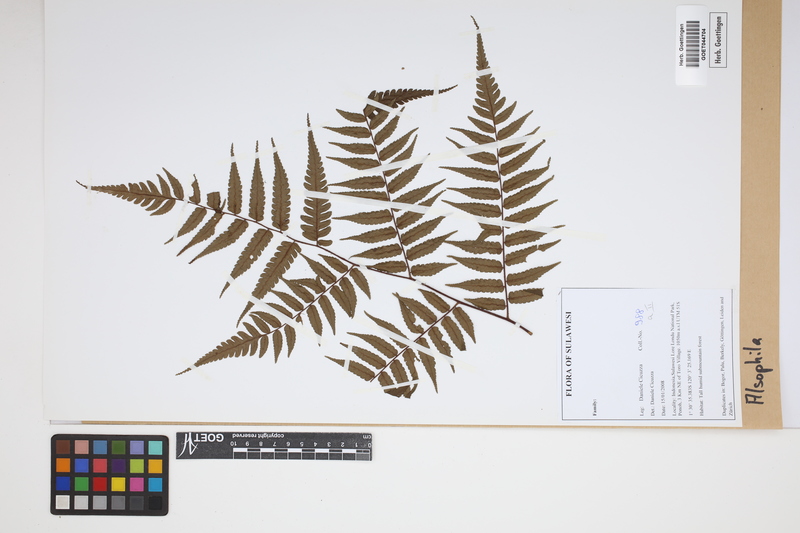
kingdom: Plantae
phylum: Tracheophyta
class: Polypodiopsida
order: Cyatheales
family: Cyatheaceae
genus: Alsophila
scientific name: Alsophila
